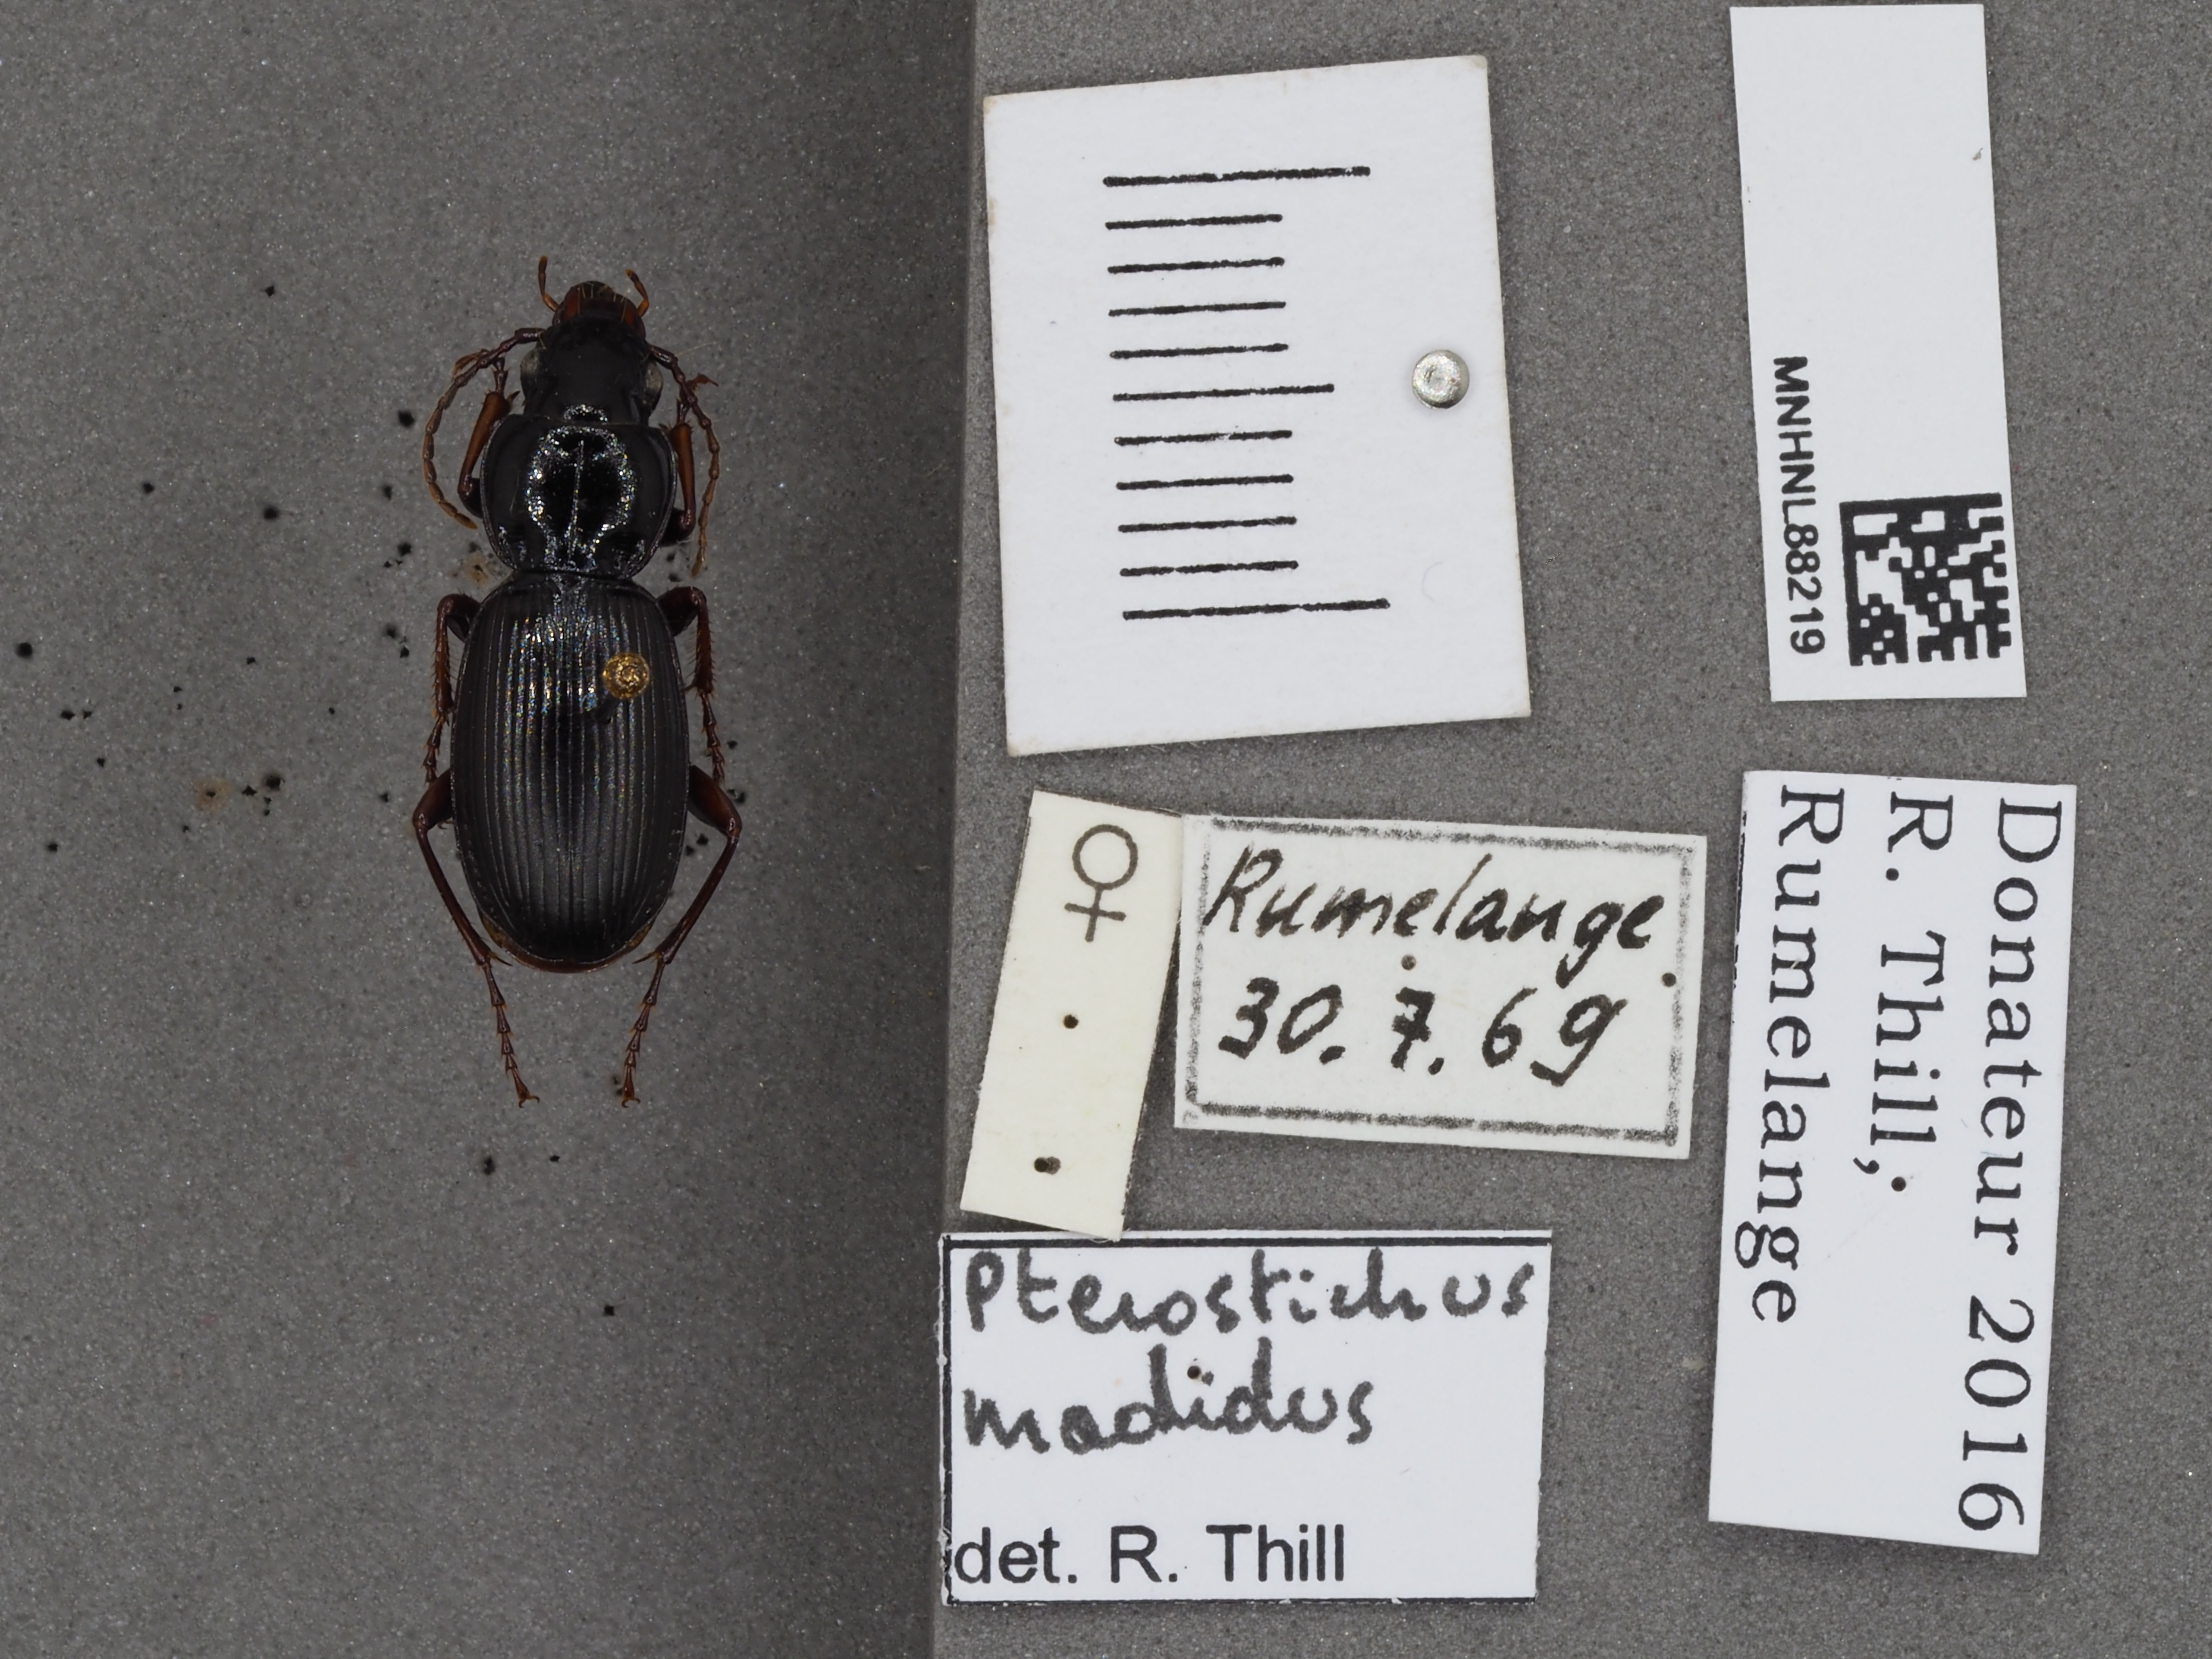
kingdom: Animalia
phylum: Arthropoda
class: Insecta
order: Coleoptera
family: Carabidae
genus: Pterostichus
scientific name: Pterostichus madidus
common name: Black clock
